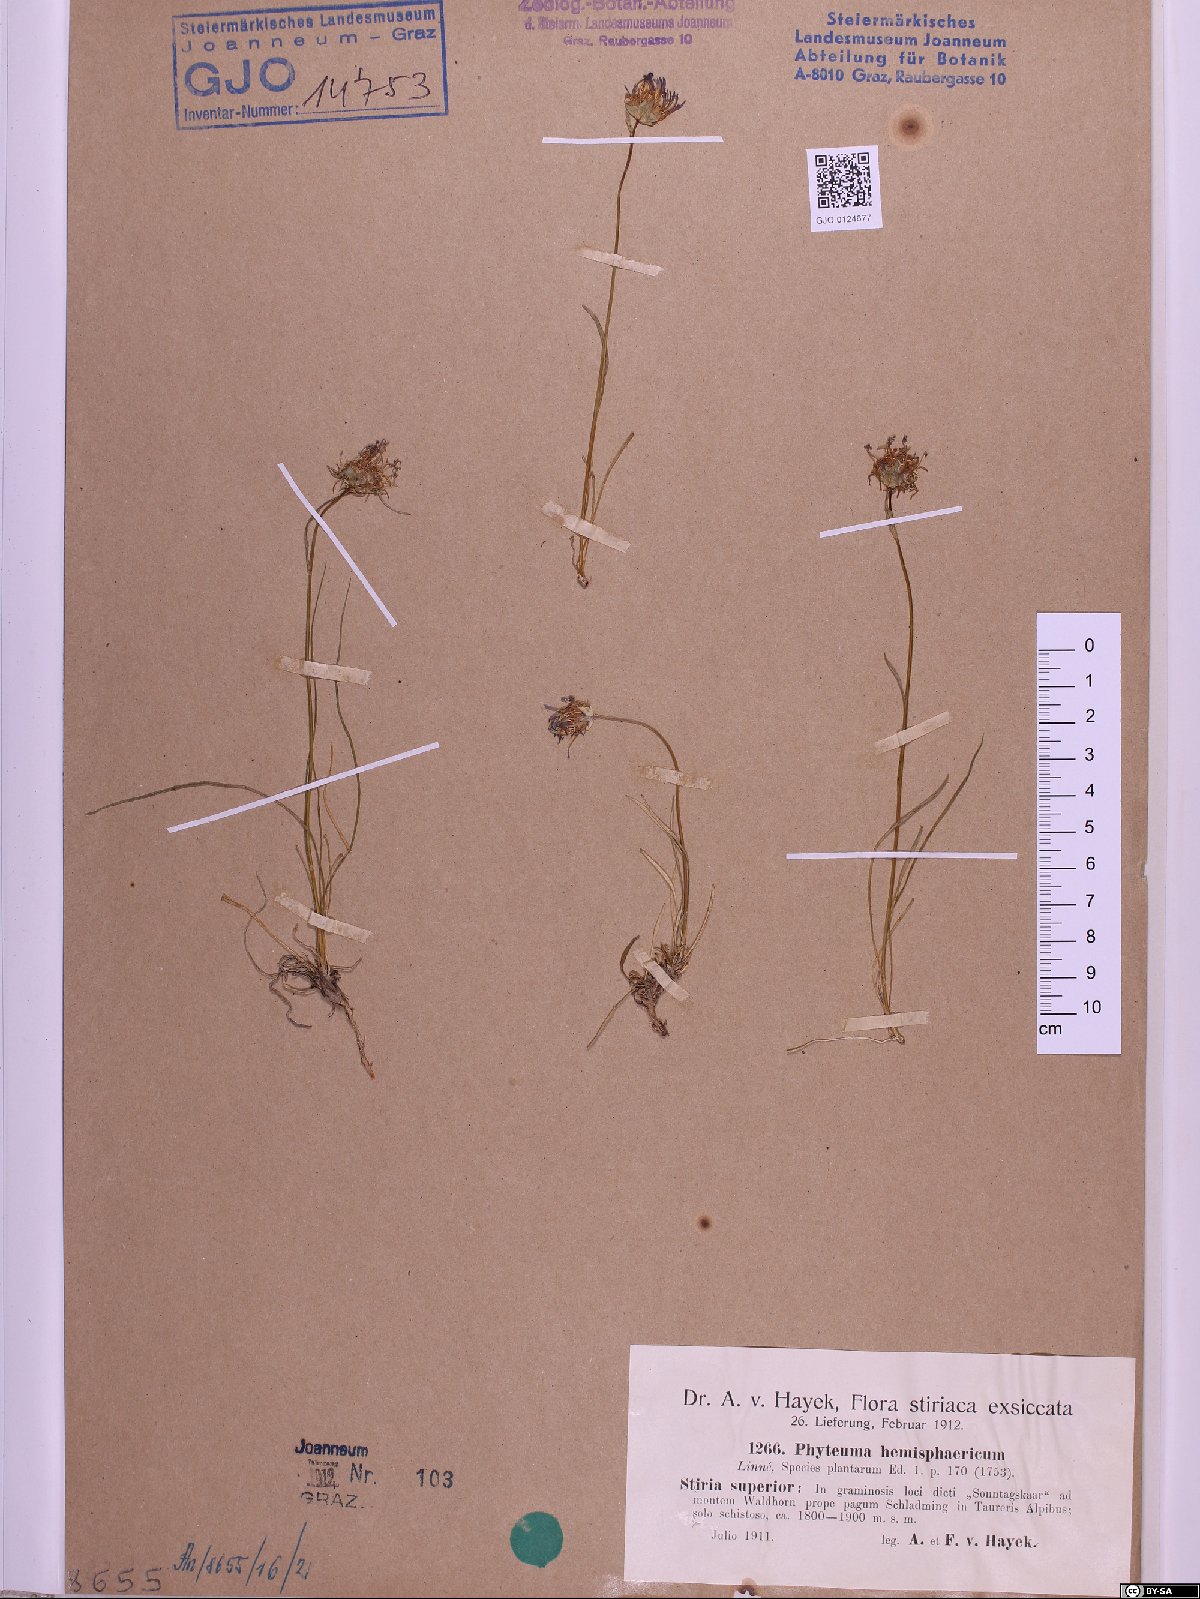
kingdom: Plantae
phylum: Tracheophyta
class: Magnoliopsida
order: Asterales
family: Campanulaceae
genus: Phyteuma
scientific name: Phyteuma hemisphaericum
